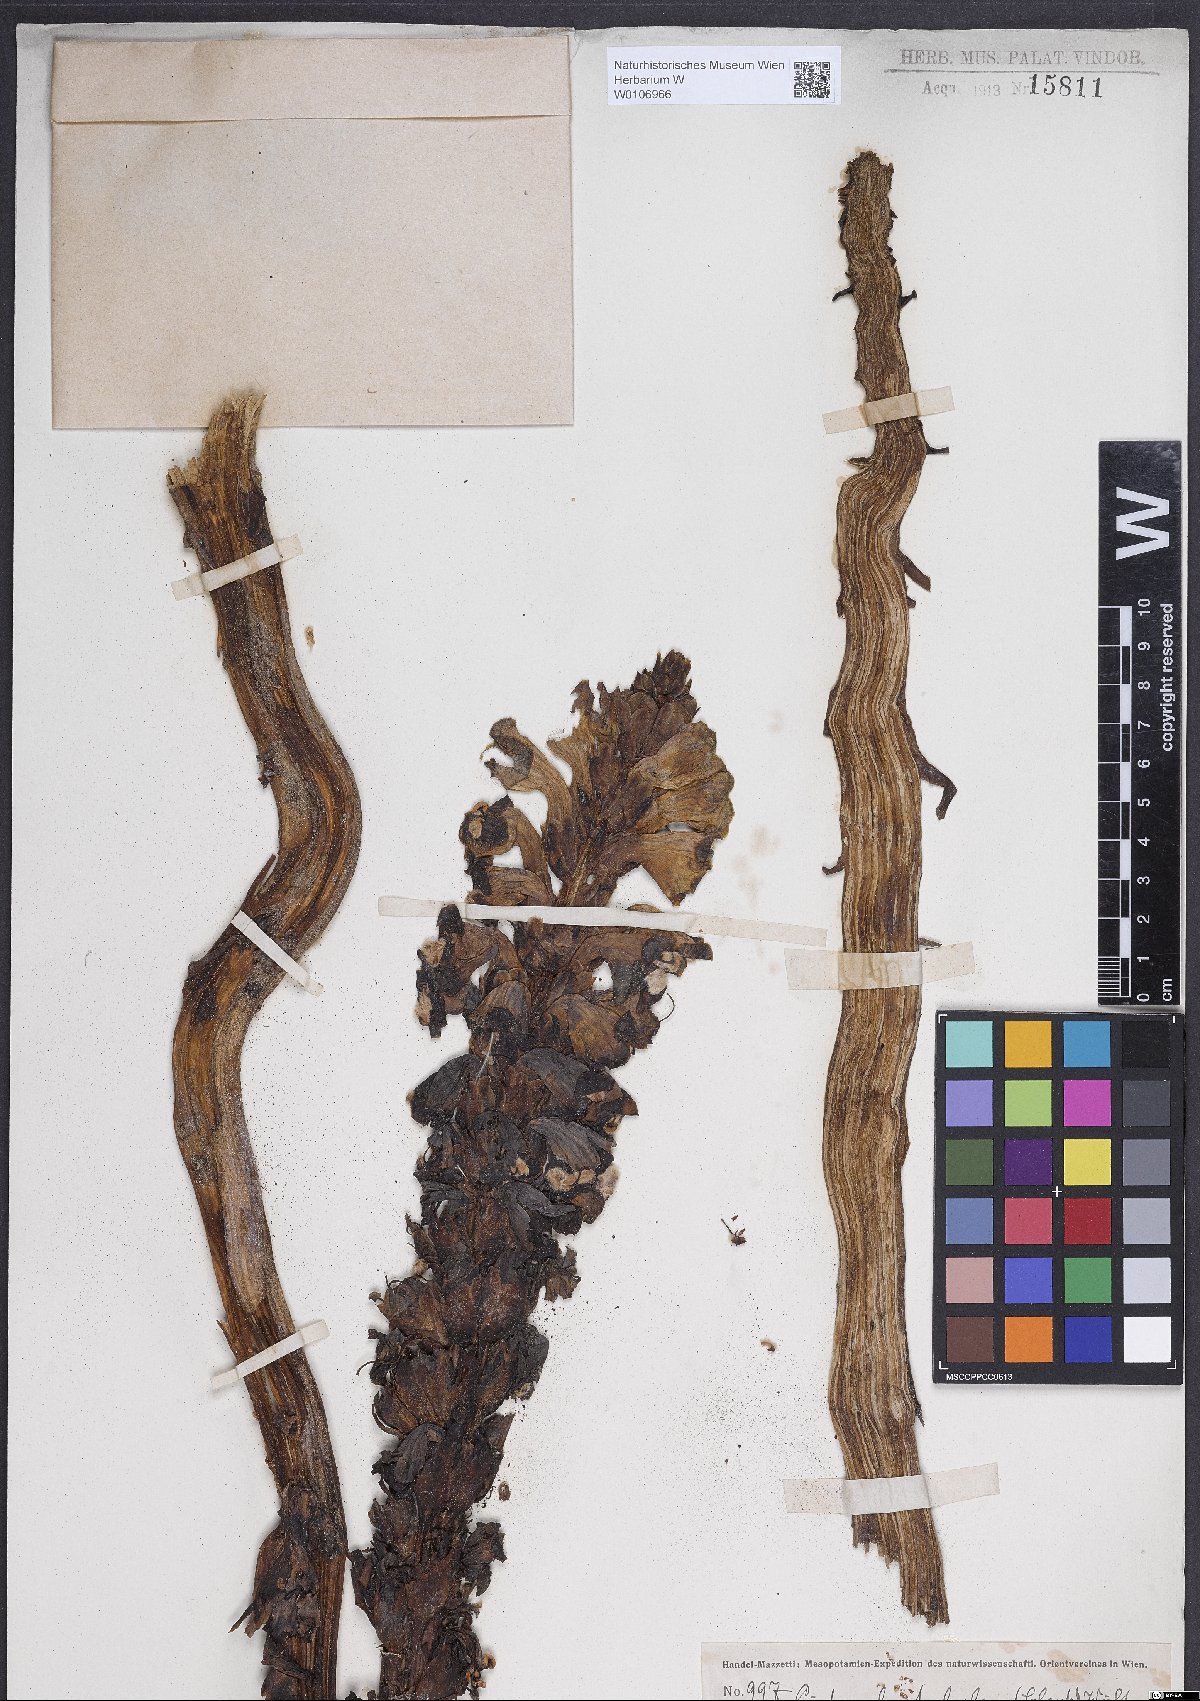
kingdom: Plantae
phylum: Tracheophyta
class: Magnoliopsida
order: Lamiales
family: Orobanchaceae
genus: Cistanche
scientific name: Cistanche tubulosa
